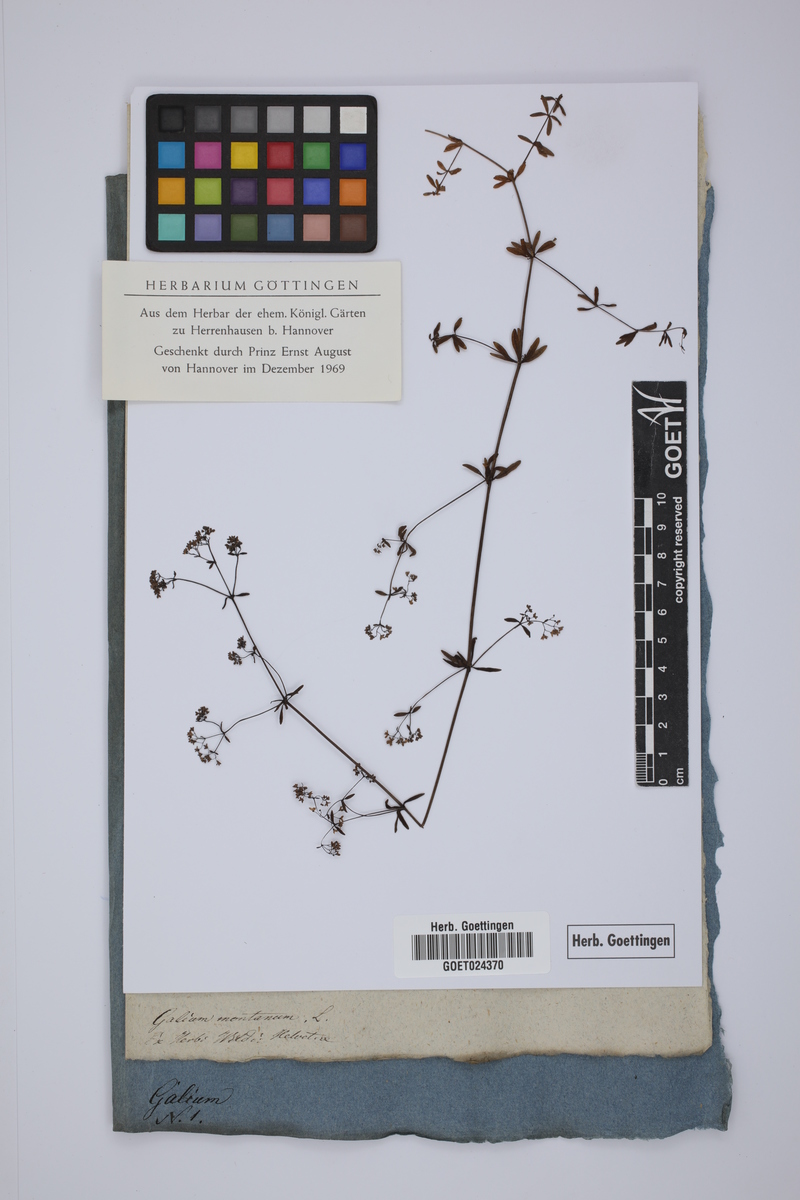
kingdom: Plantae
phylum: Tracheophyta
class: Magnoliopsida
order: Gentianales
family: Rubiaceae
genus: Galium
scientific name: Galium glaucum
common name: Waxy bedstraw
